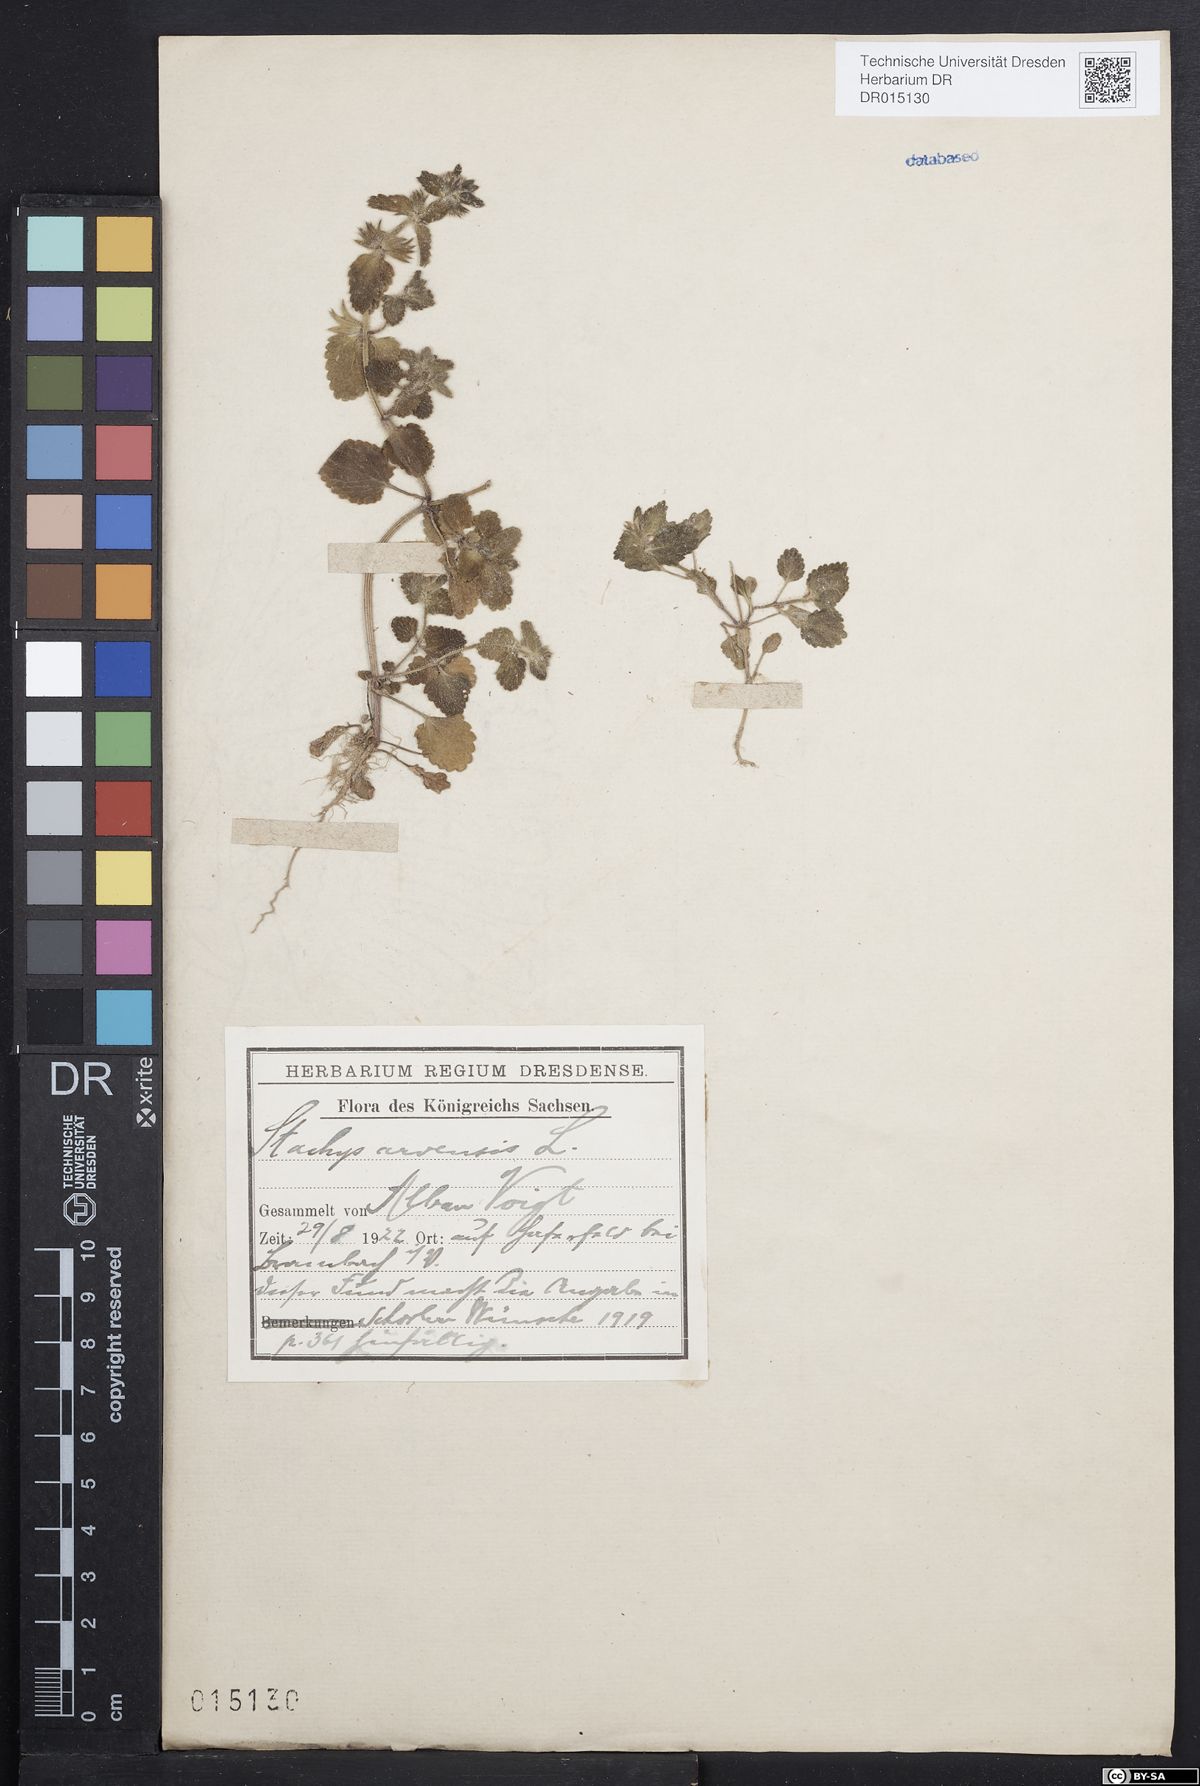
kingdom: Plantae
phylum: Tracheophyta
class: Magnoliopsida
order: Lamiales
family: Lamiaceae
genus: Stachys
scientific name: Stachys arvensis
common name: Field woundwort
